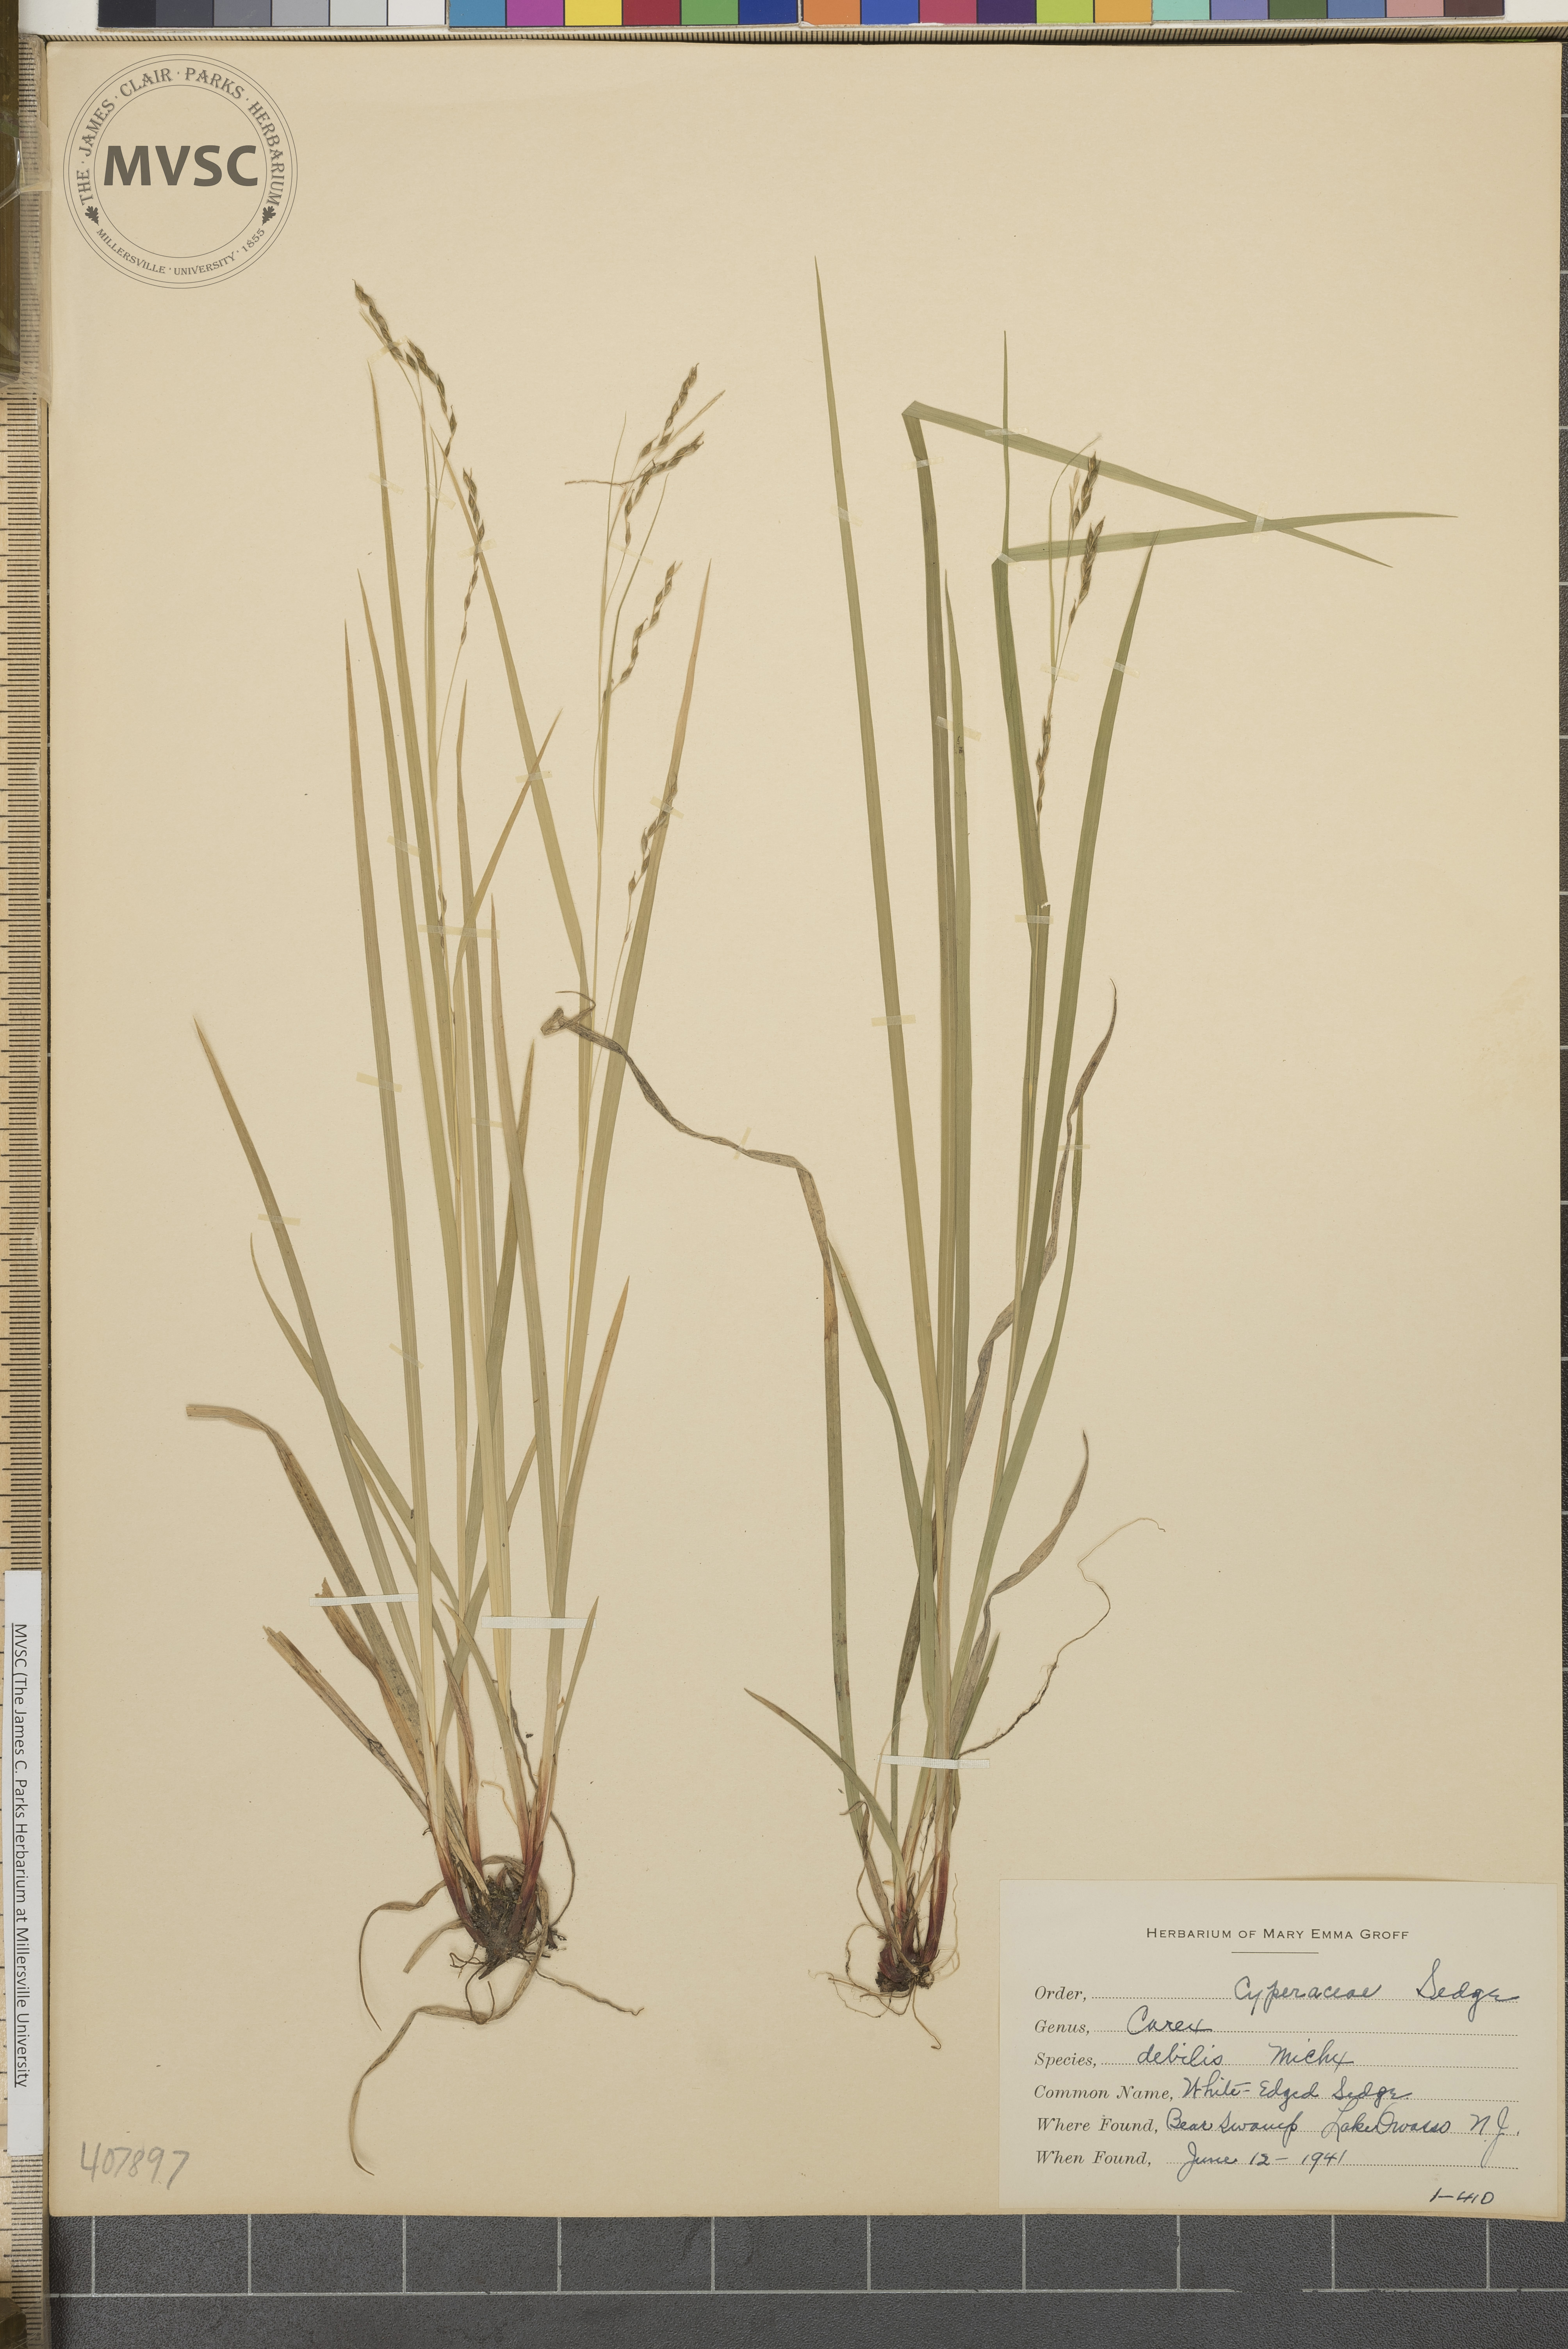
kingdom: Plantae
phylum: Tracheophyta
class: Liliopsida
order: Poales
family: Cyperaceae
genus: Carex
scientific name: Carex debilis
